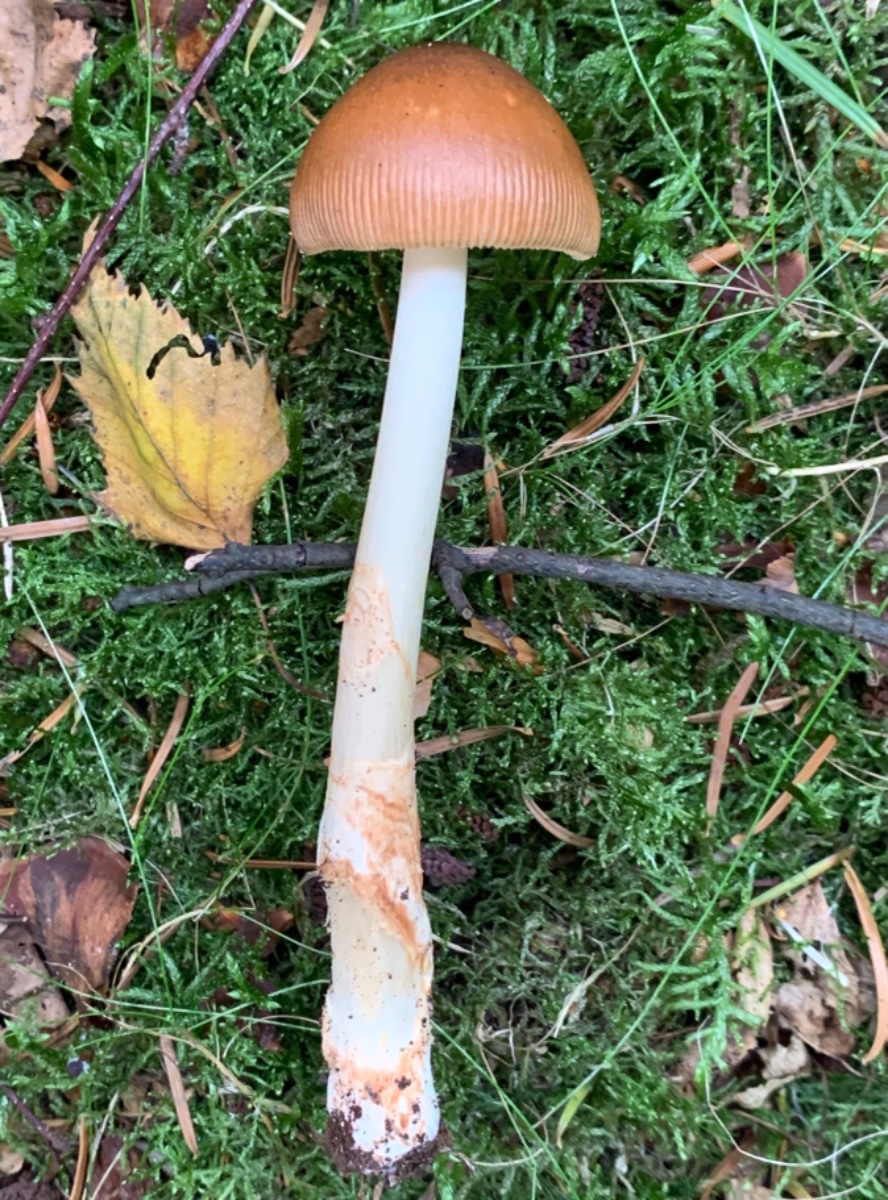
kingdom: Fungi
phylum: Basidiomycota
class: Agaricomycetes
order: Agaricales
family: Amanitaceae
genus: Amanita
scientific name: Amanita fulva
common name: brun kam-fluesvamp
